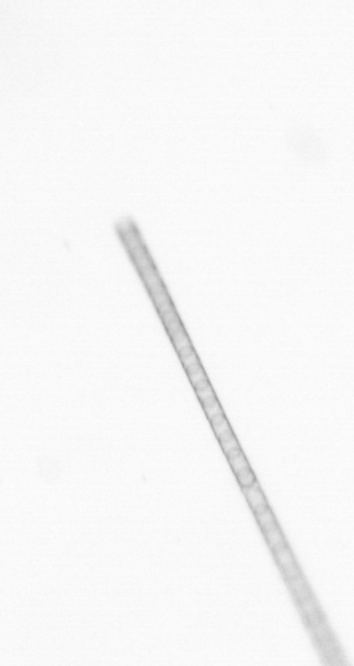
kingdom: Chromista
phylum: Ochrophyta
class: Bacillariophyceae
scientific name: Bacillariophyceae
